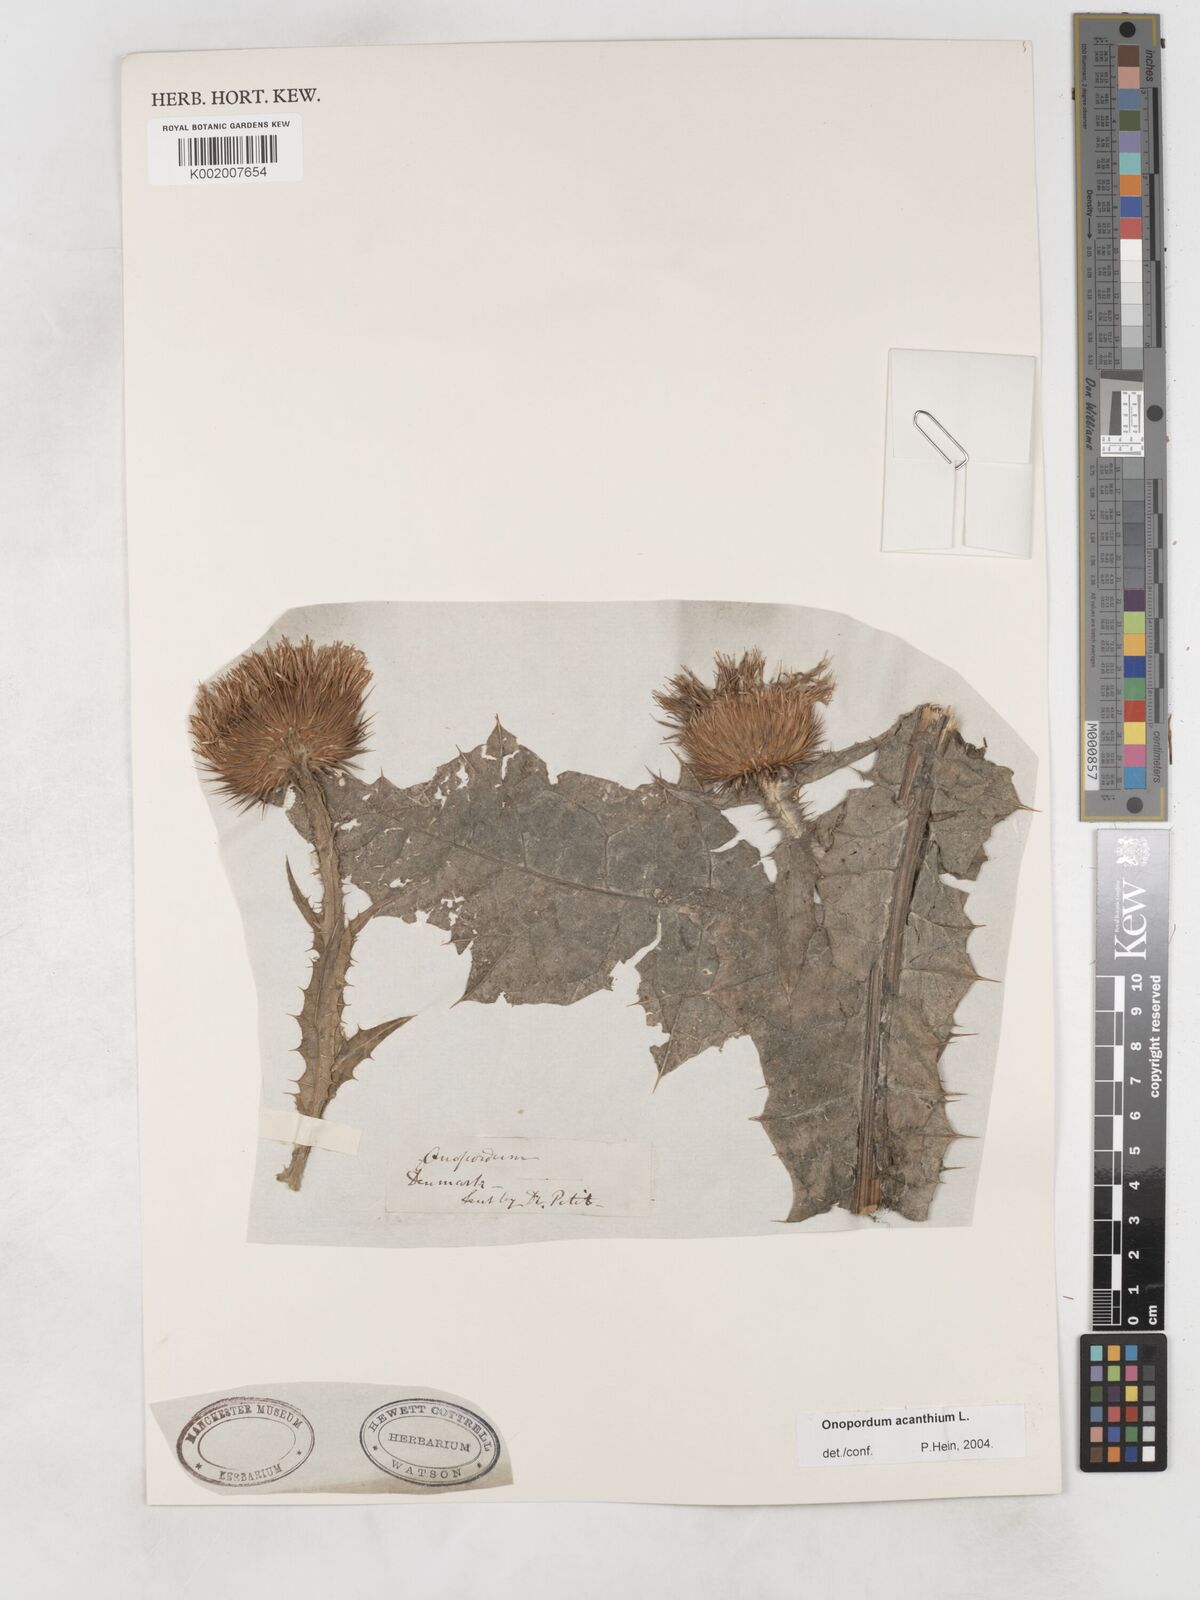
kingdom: Plantae
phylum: Tracheophyta
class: Magnoliopsida
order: Asterales
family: Asteraceae
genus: Onopordum
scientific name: Onopordum acanthium
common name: Scotch thistle
